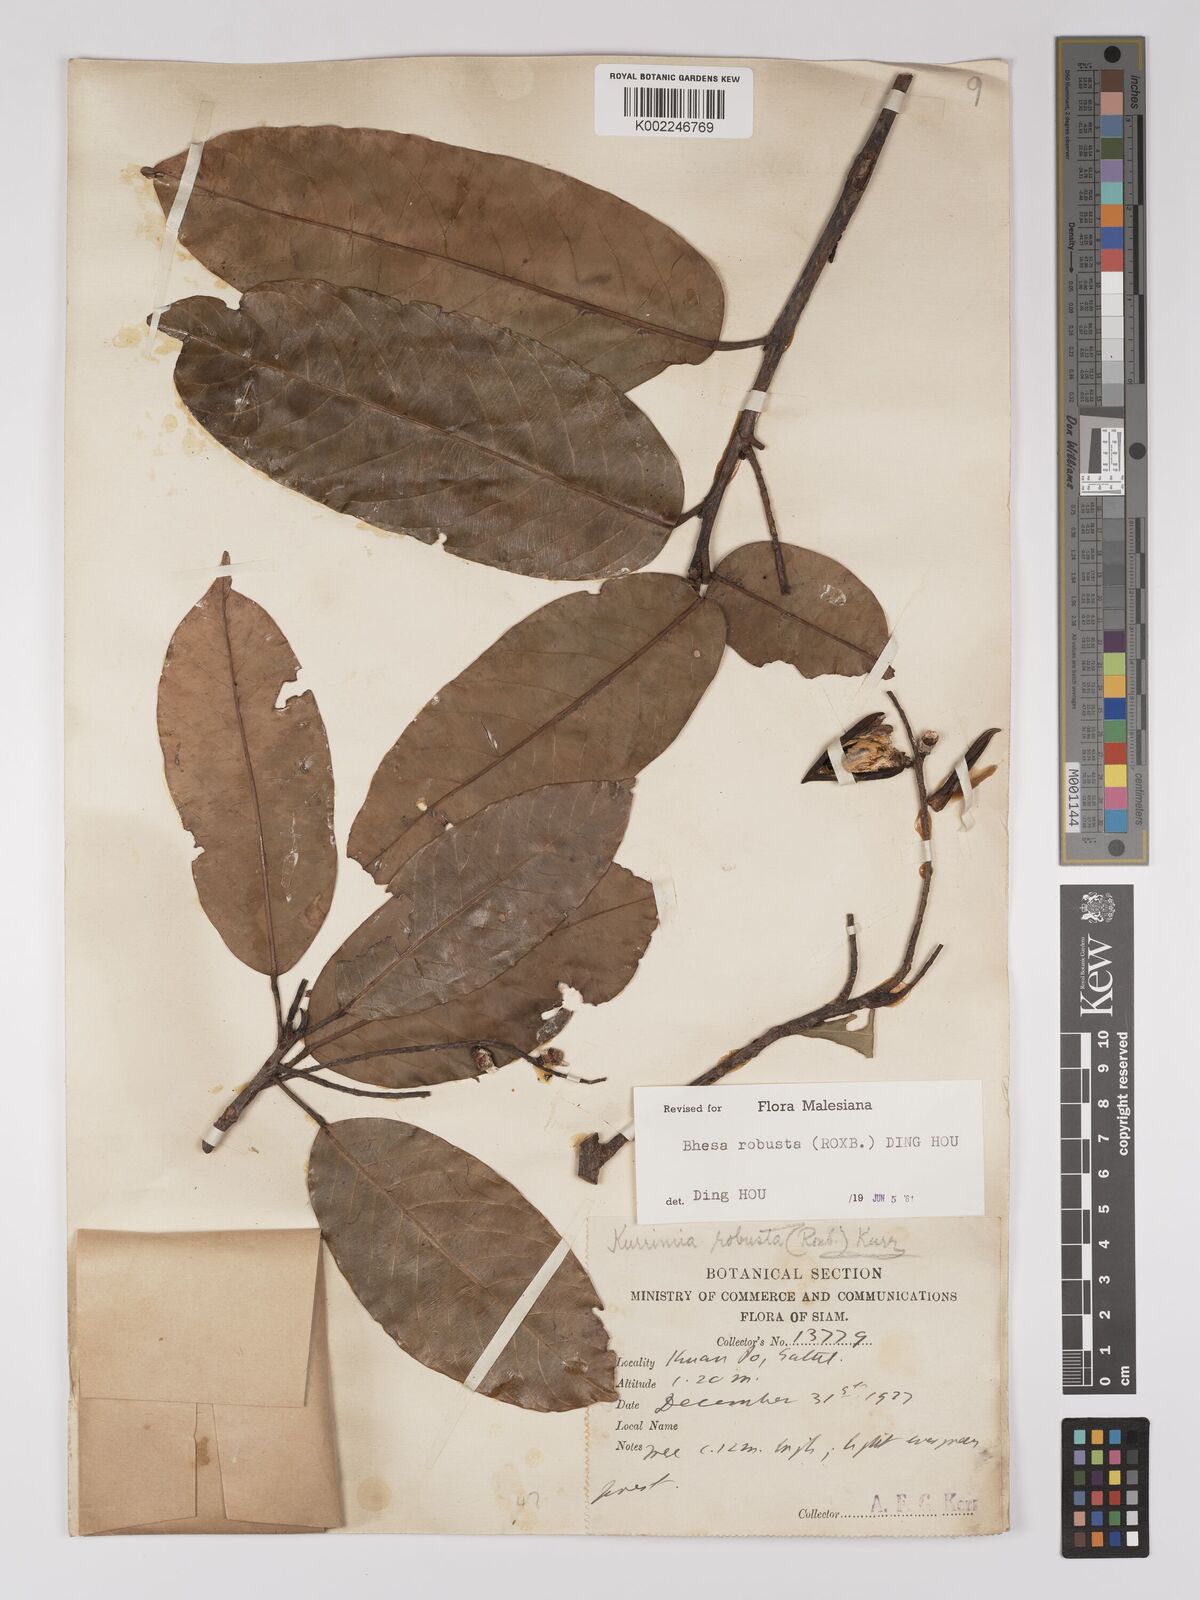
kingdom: Plantae
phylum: Tracheophyta
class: Magnoliopsida
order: Malpighiales
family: Centroplacaceae
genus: Bhesa
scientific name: Bhesa robusta
